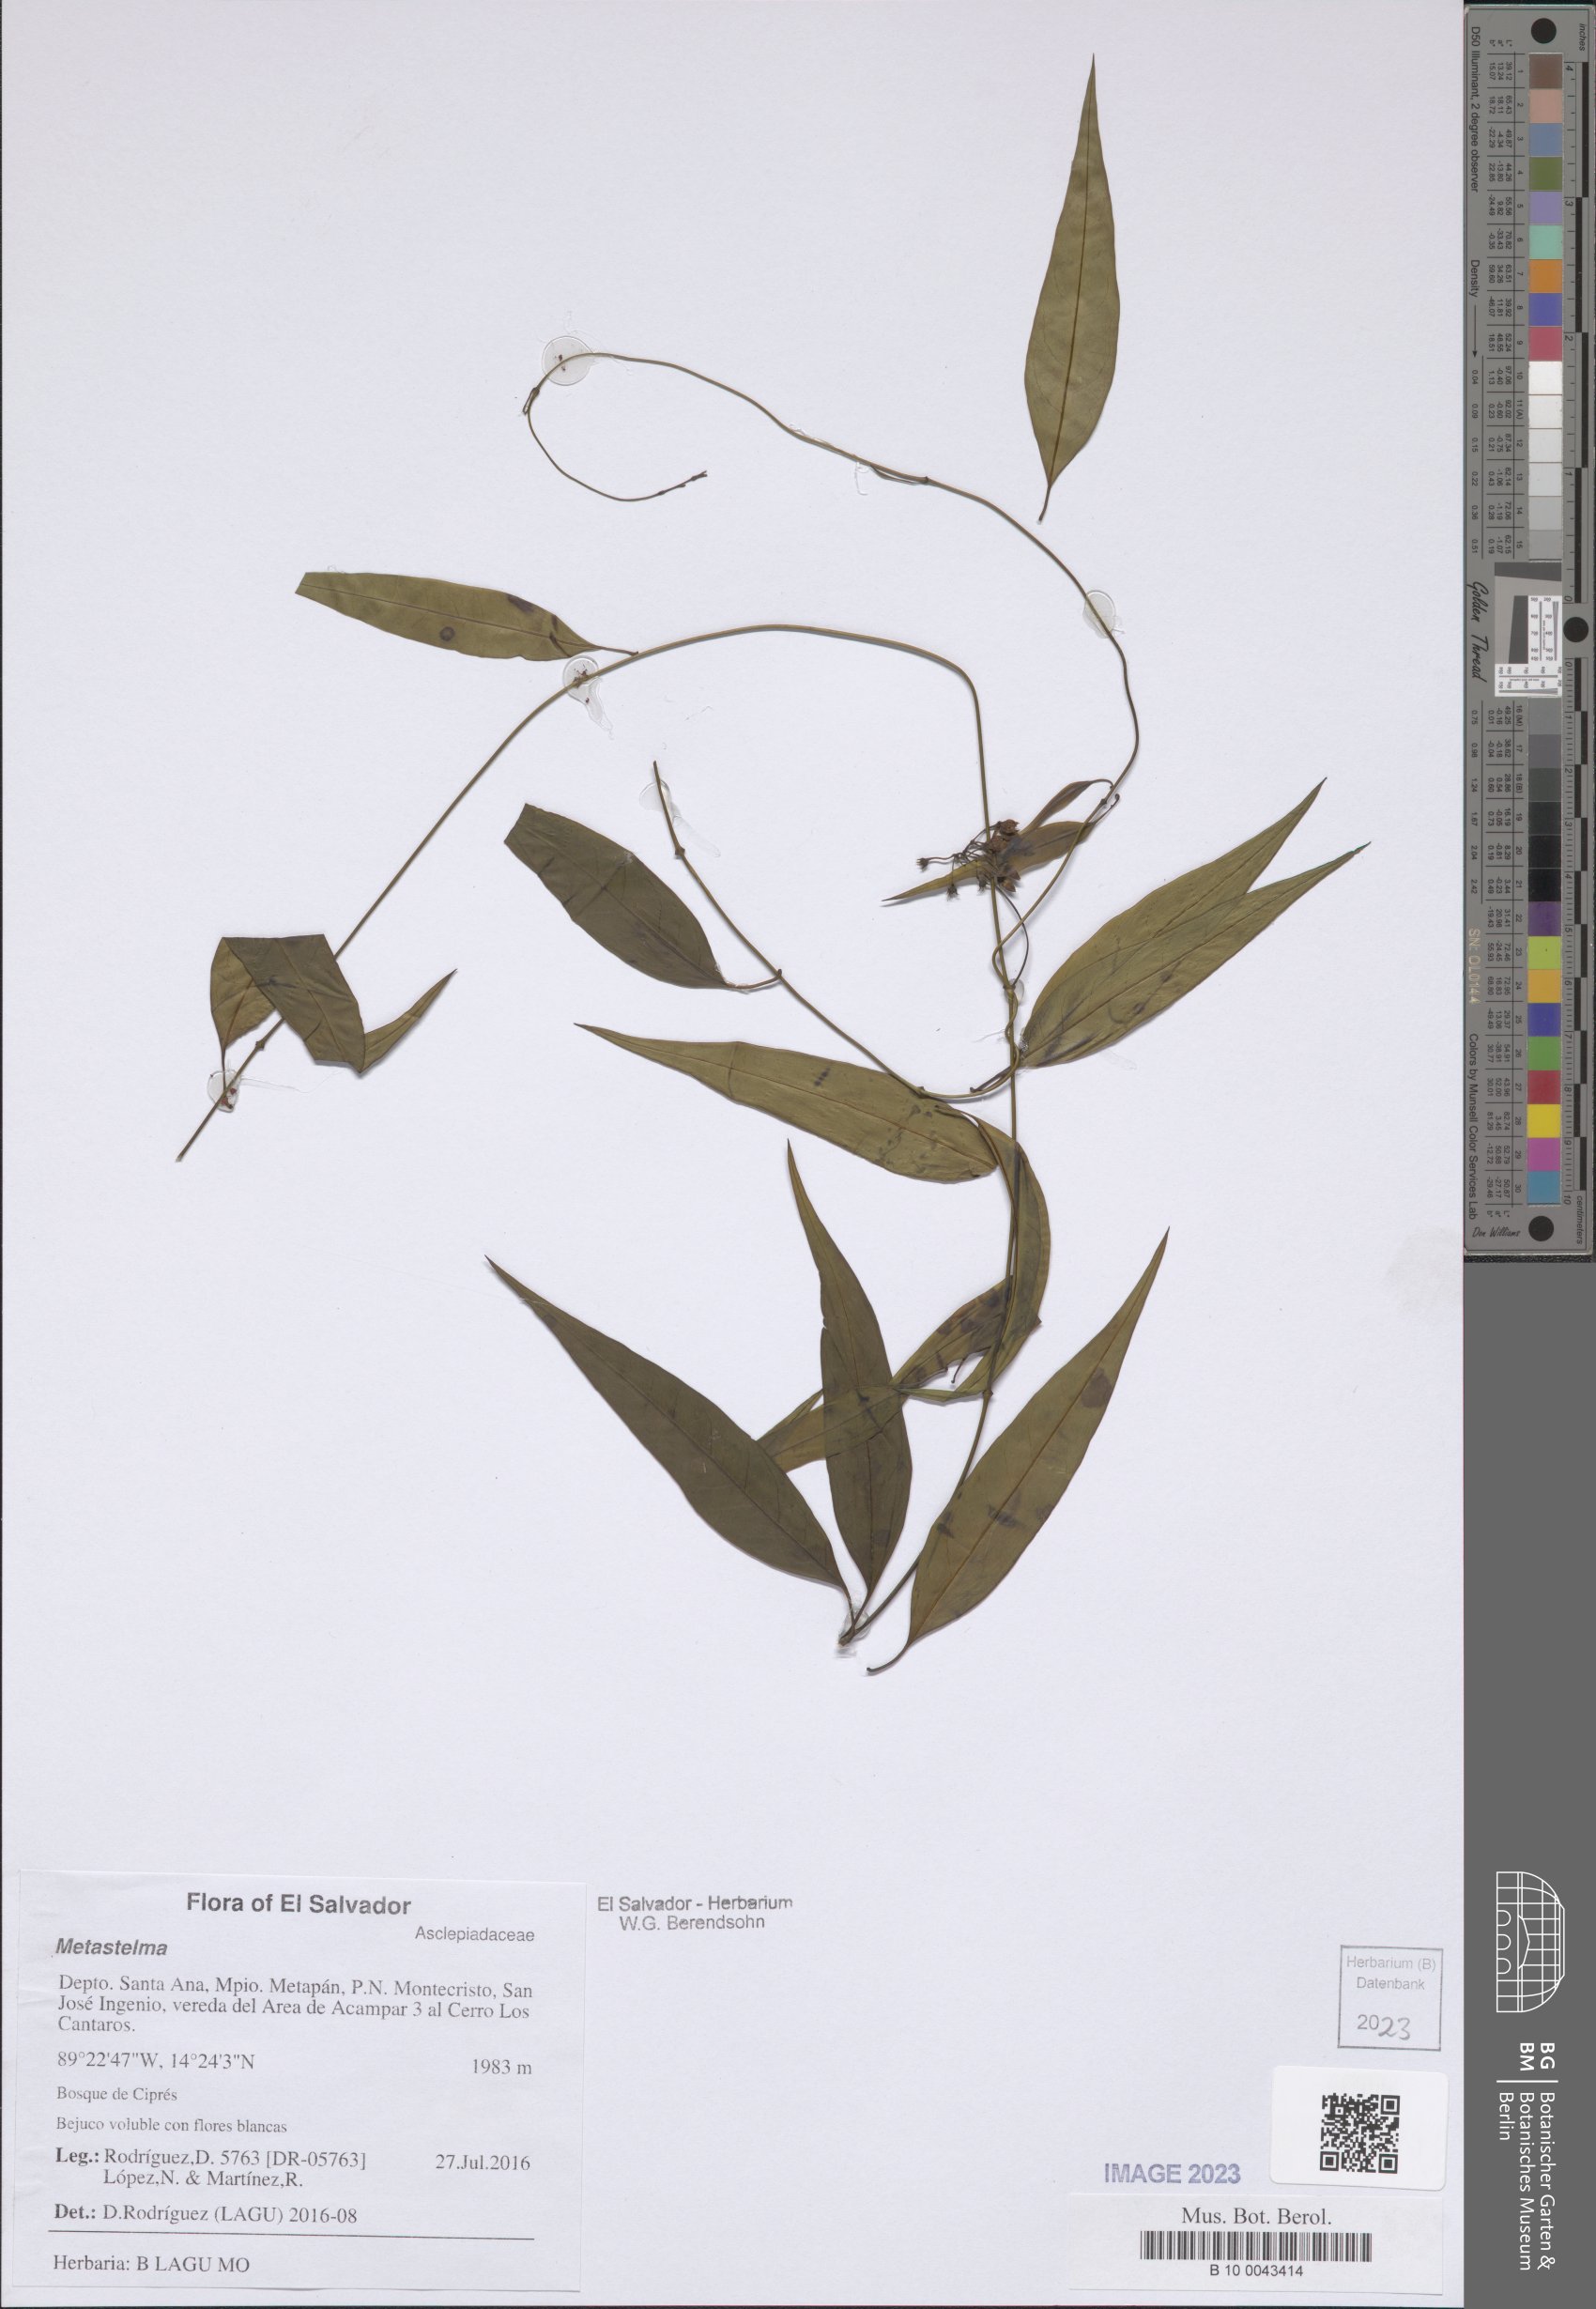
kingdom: Plantae
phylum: Tracheophyta
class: Magnoliopsida
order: Gentianales
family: Apocynaceae
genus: Metastelma
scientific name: Metastelma
